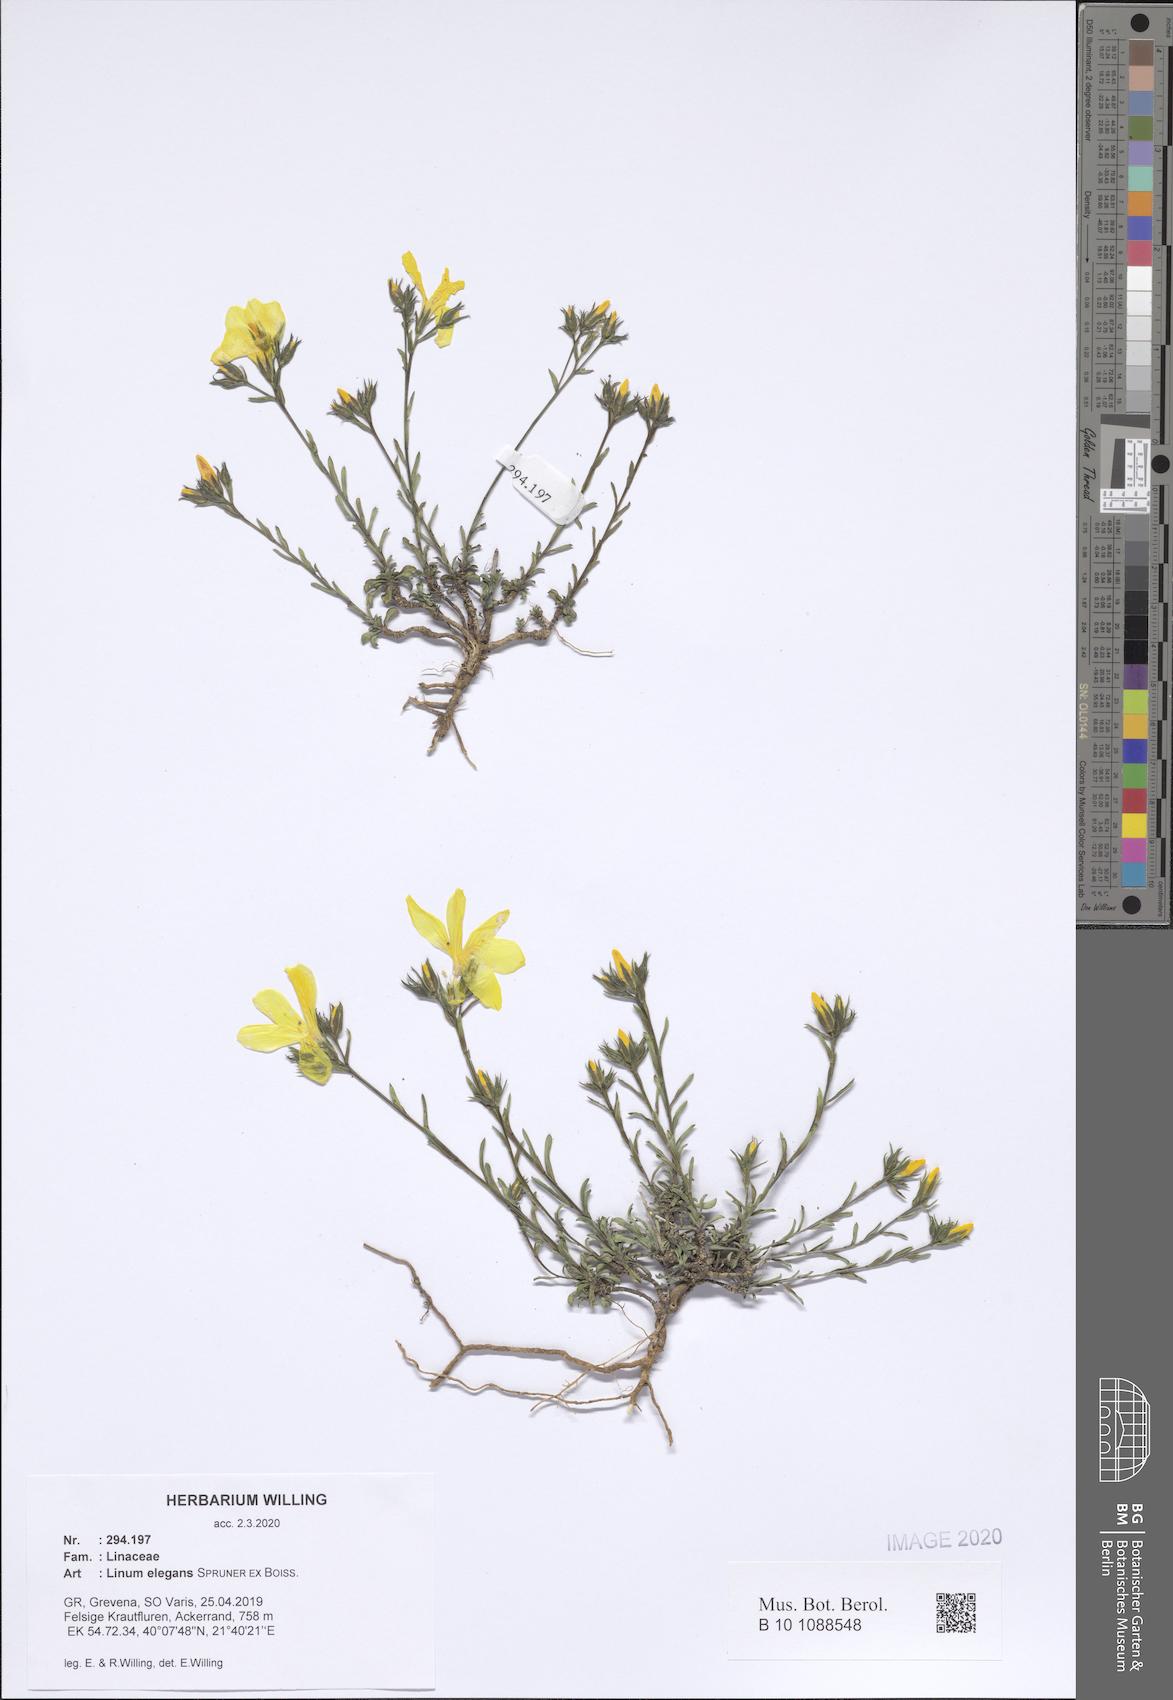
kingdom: Plantae
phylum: Tracheophyta
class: Magnoliopsida
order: Malpighiales
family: Linaceae
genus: Linum
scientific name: Linum elegans
